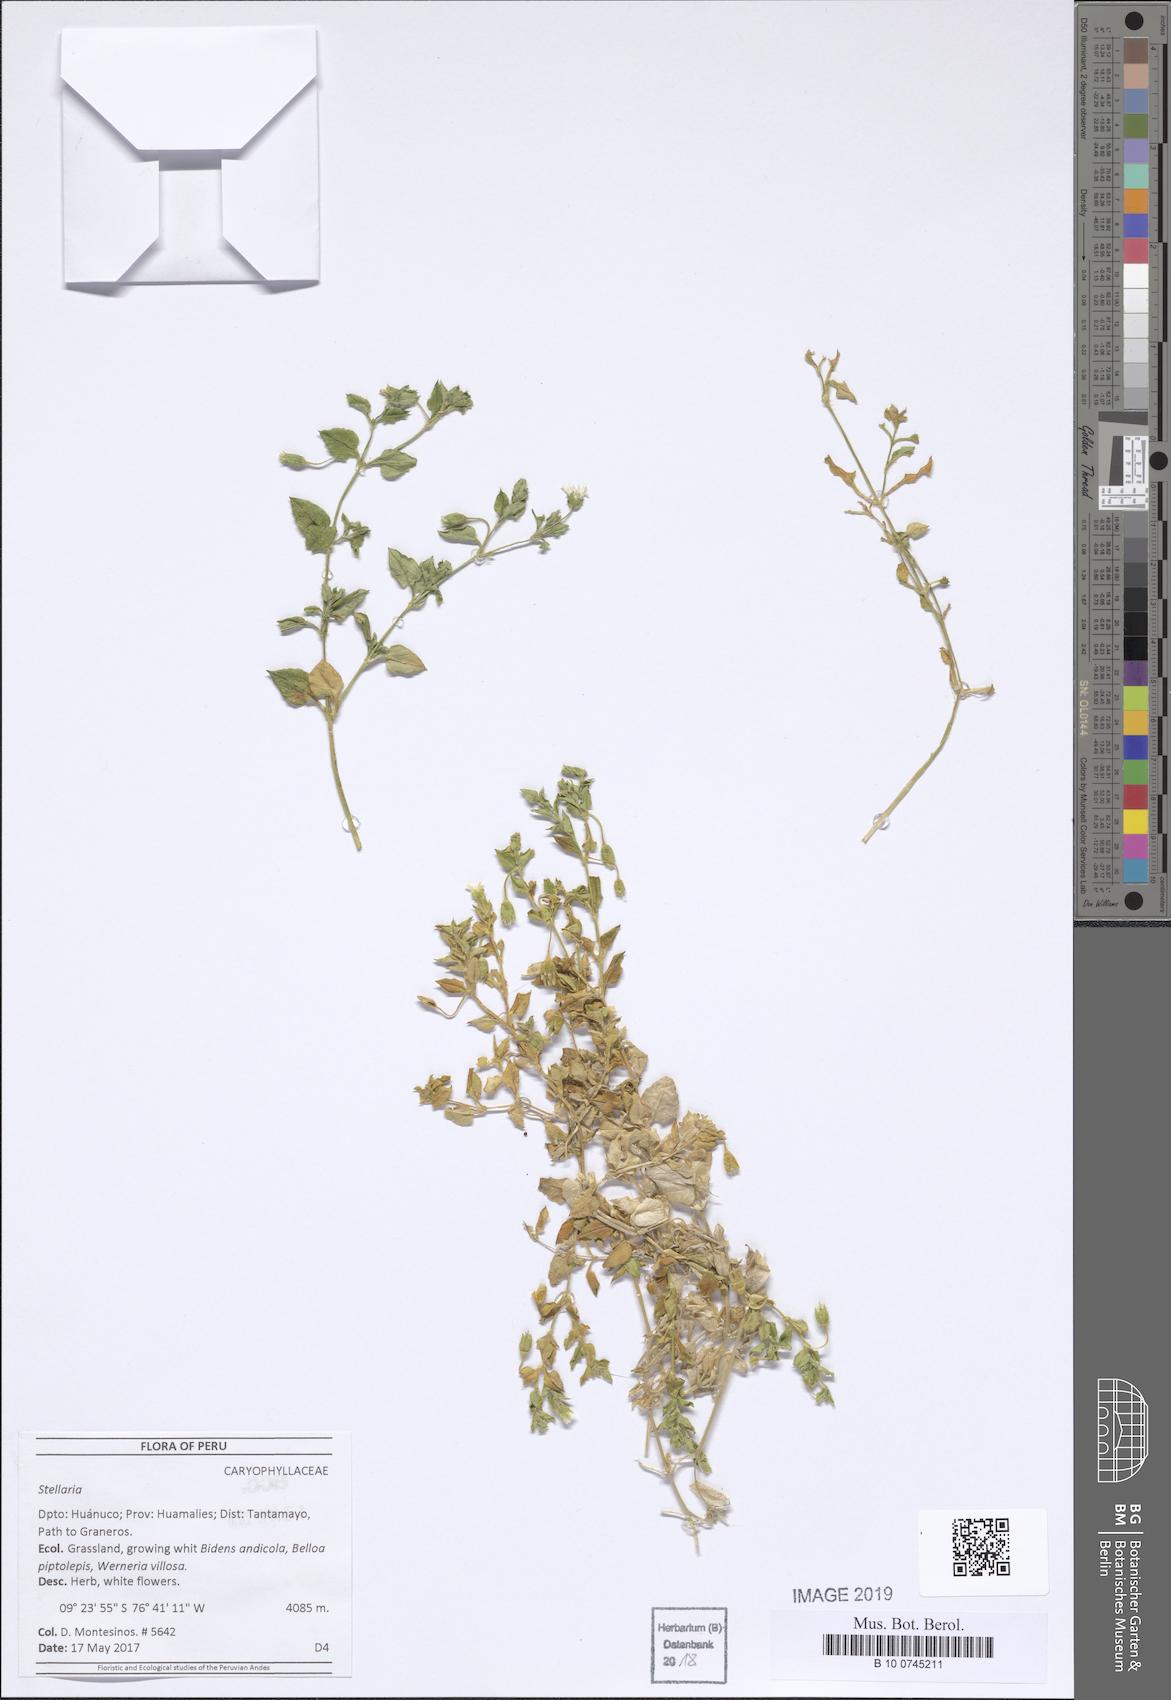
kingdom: Plantae
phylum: Tracheophyta
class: Magnoliopsida
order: Caryophyllales
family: Caryophyllaceae
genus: Stellaria
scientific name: Stellaria
